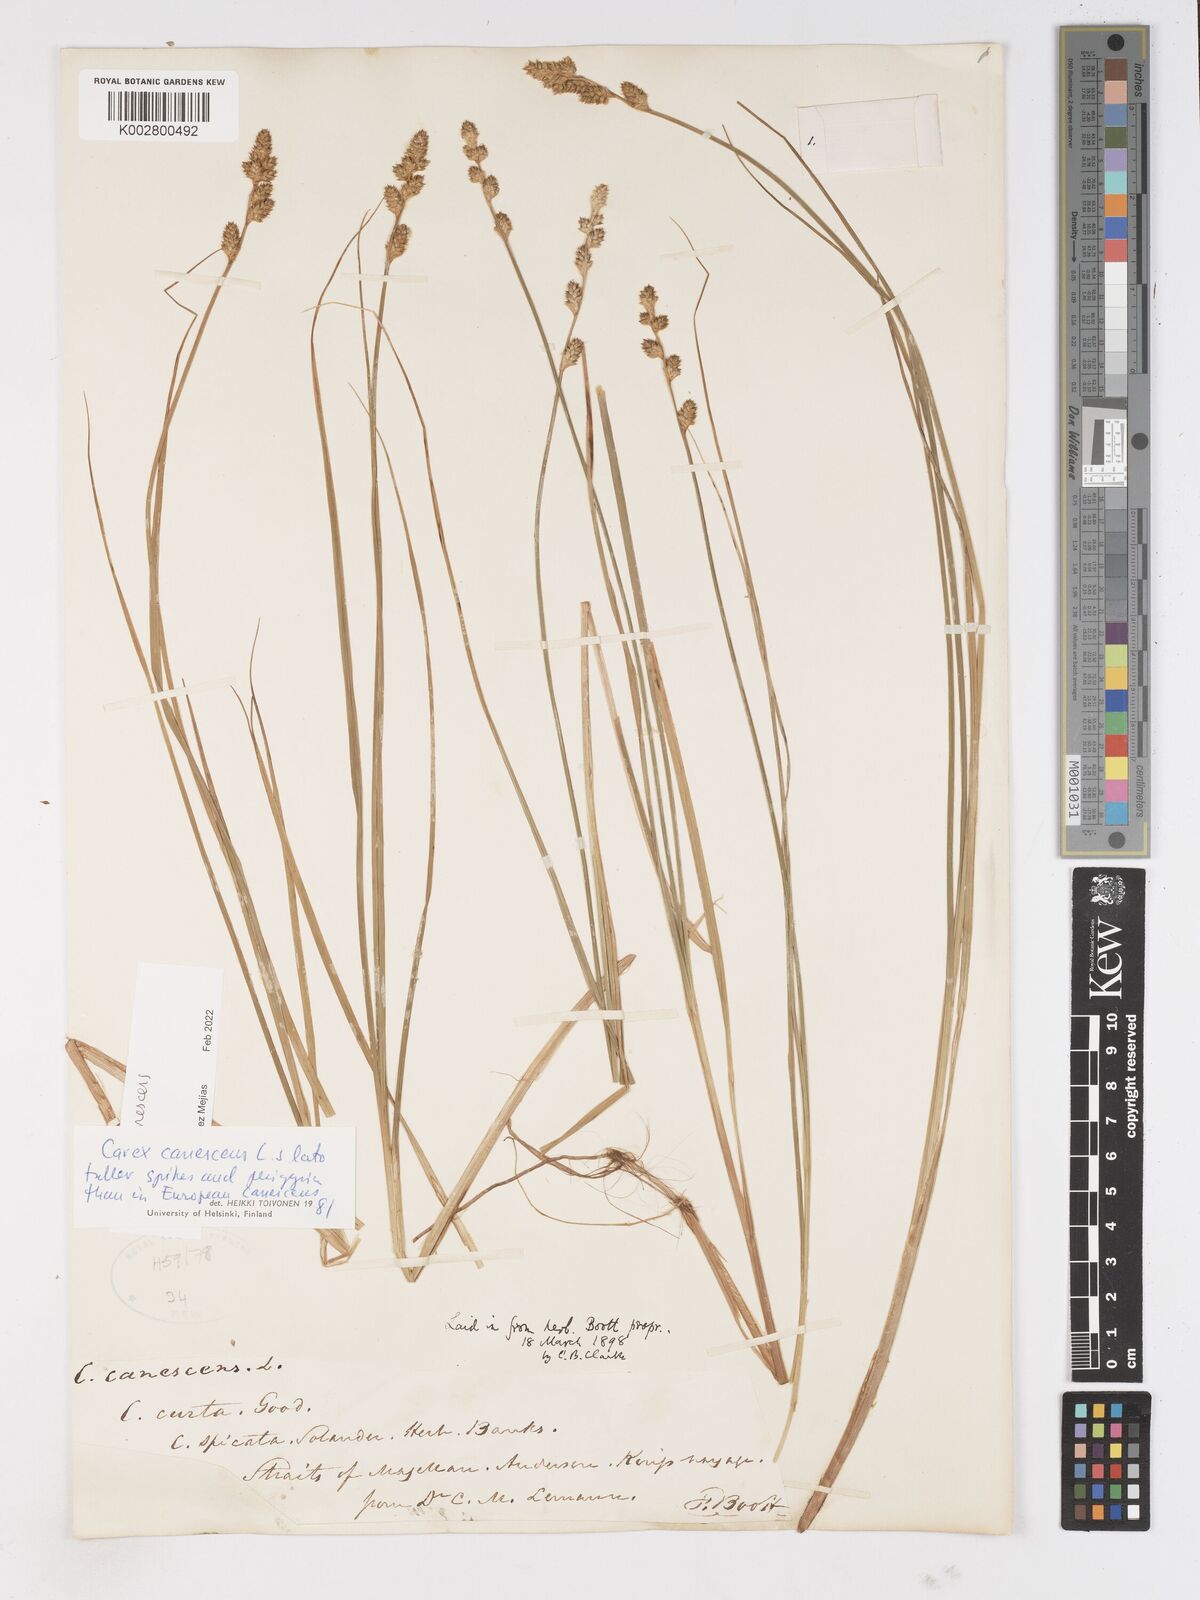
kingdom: Plantae
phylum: Tracheophyta
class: Liliopsida
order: Poales
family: Cyperaceae
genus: Carex
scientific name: Carex curta
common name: White sedge
